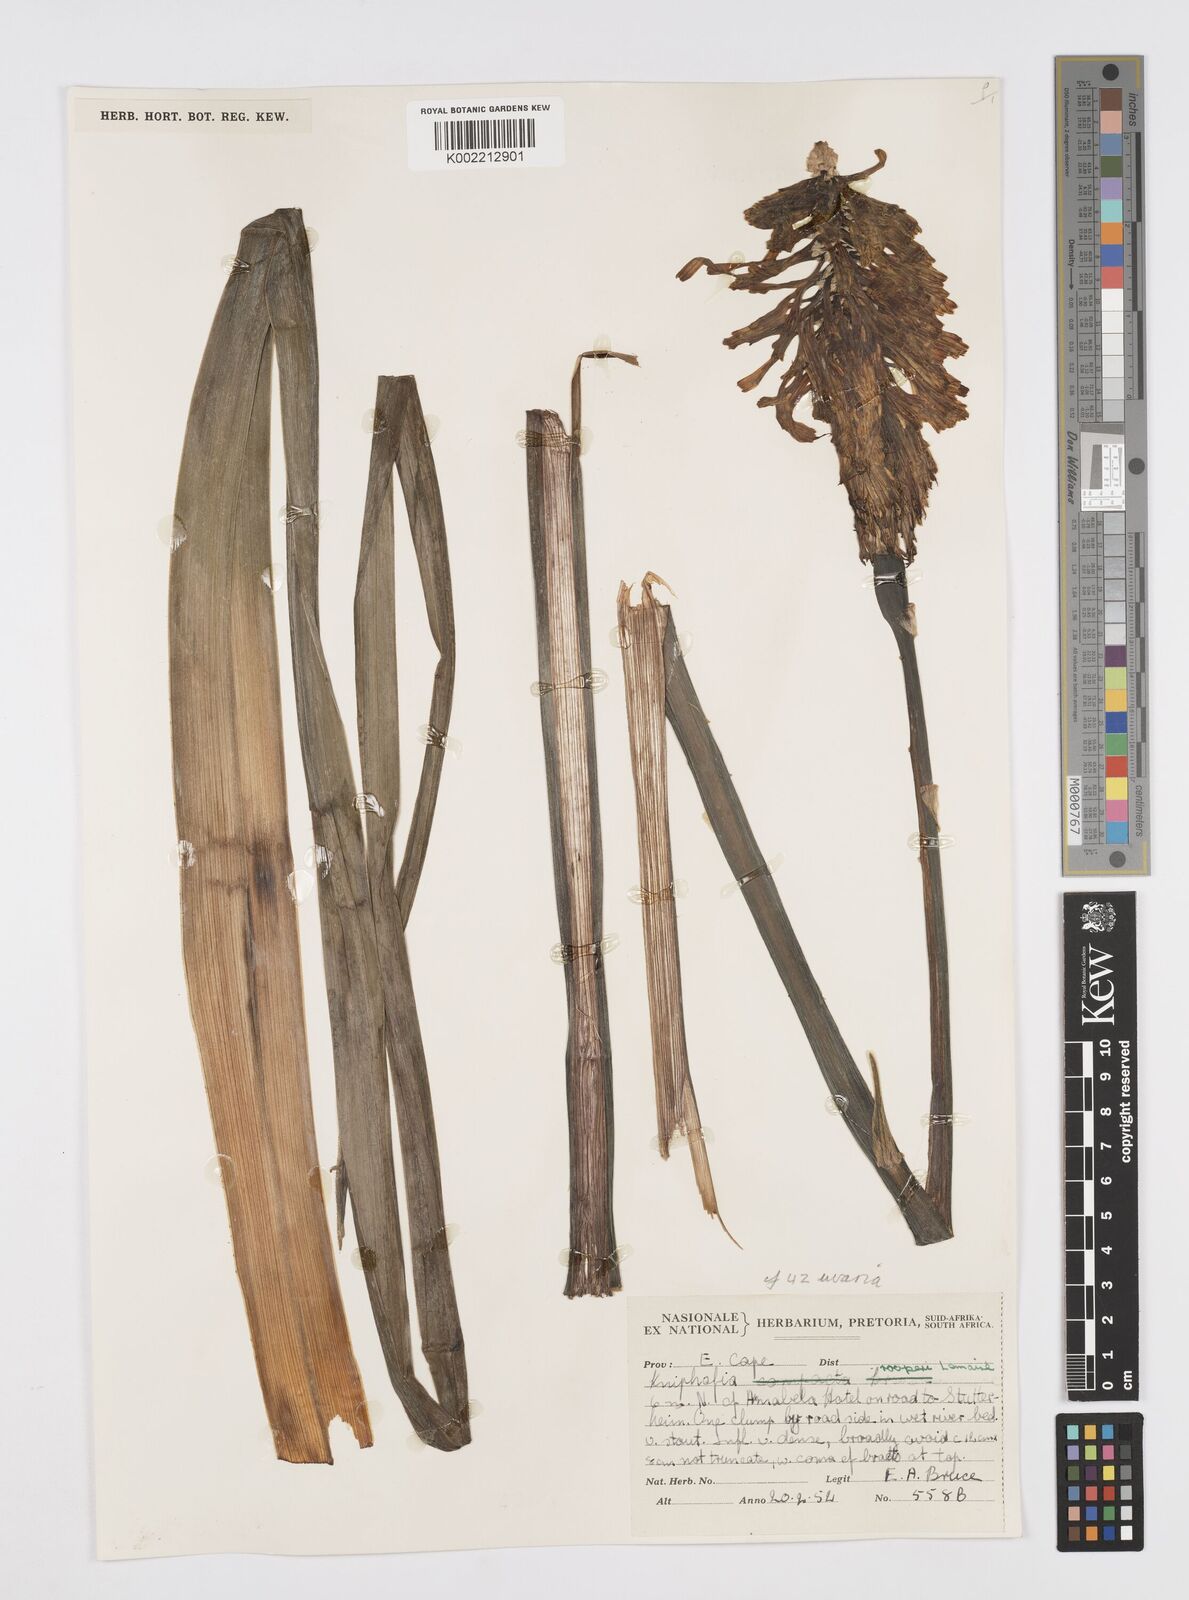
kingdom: Plantae
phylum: Tracheophyta
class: Liliopsida
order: Asparagales
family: Asphodelaceae
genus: Kniphofia
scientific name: Kniphofia uvaria
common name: Red-hot-poker
